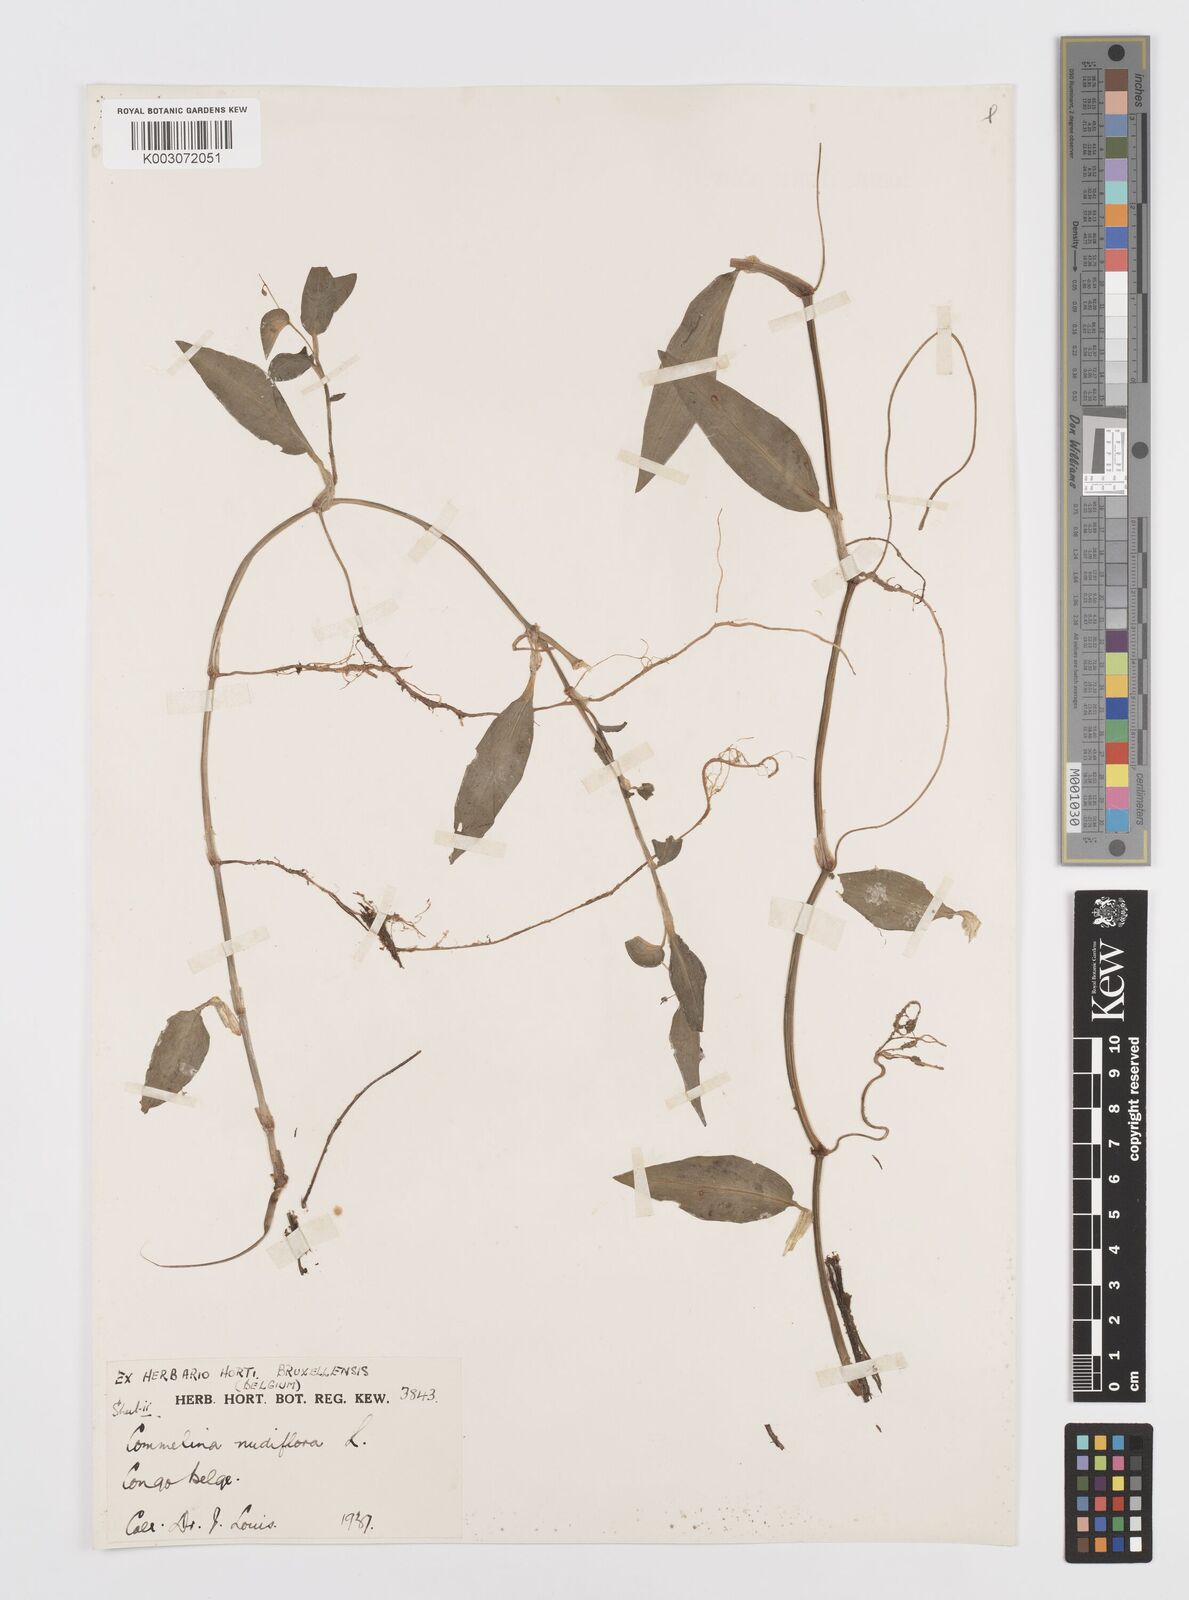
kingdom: Plantae
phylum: Tracheophyta
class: Liliopsida
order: Commelinales
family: Commelinaceae
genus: Commelina
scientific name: Commelina diffusa
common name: Climbing dayflower
